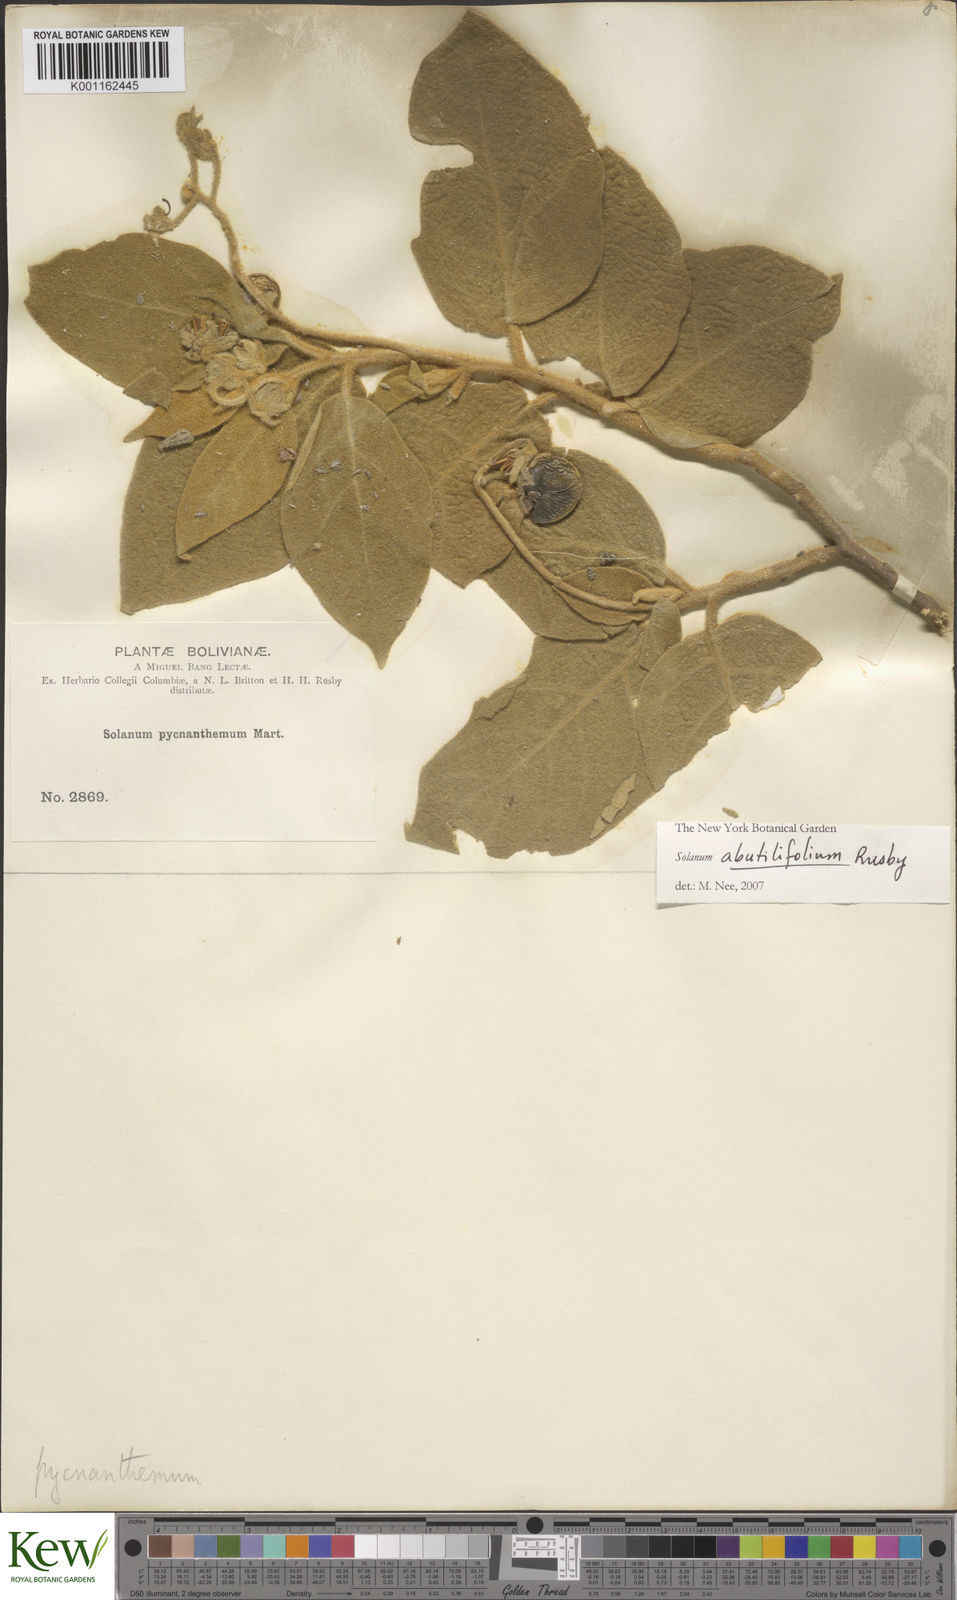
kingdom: Plantae
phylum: Tracheophyta
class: Magnoliopsida
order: Solanales
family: Solanaceae
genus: Solanum
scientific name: Solanum abutilifolium
